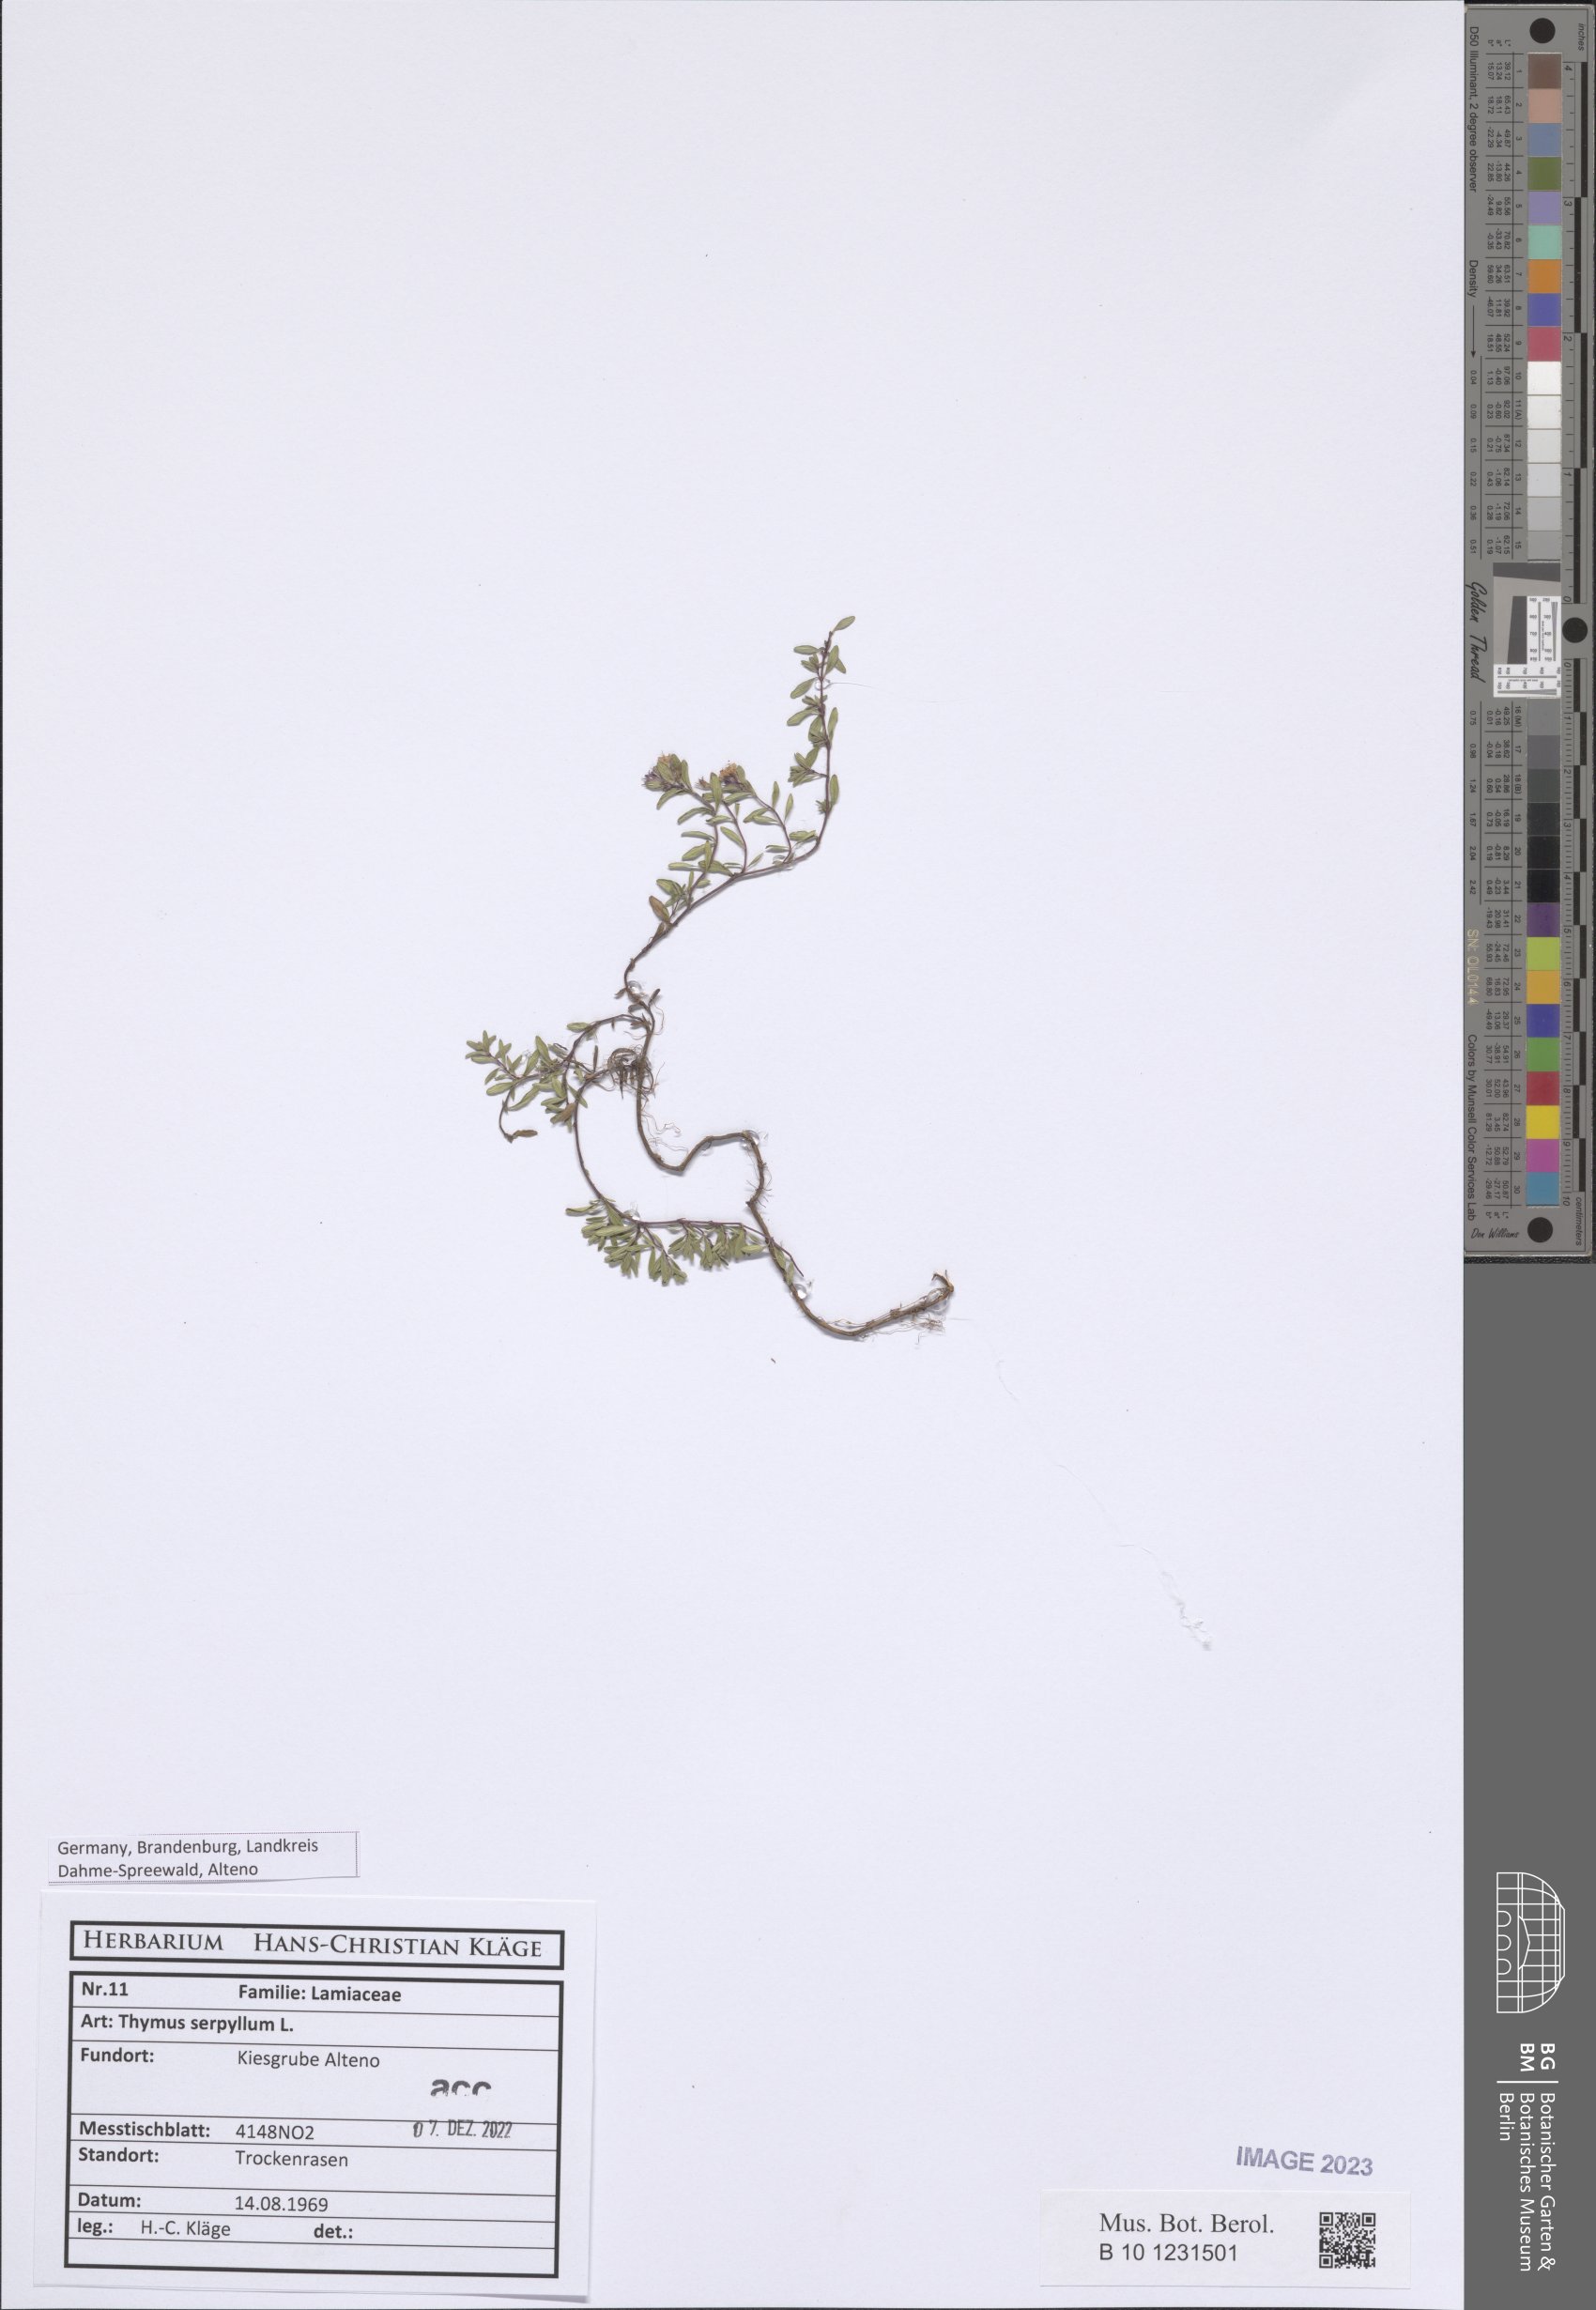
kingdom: Plantae
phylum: Tracheophyta
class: Magnoliopsida
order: Lamiales
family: Lamiaceae
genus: Thymus
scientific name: Thymus serpyllum
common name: Breckland thyme
